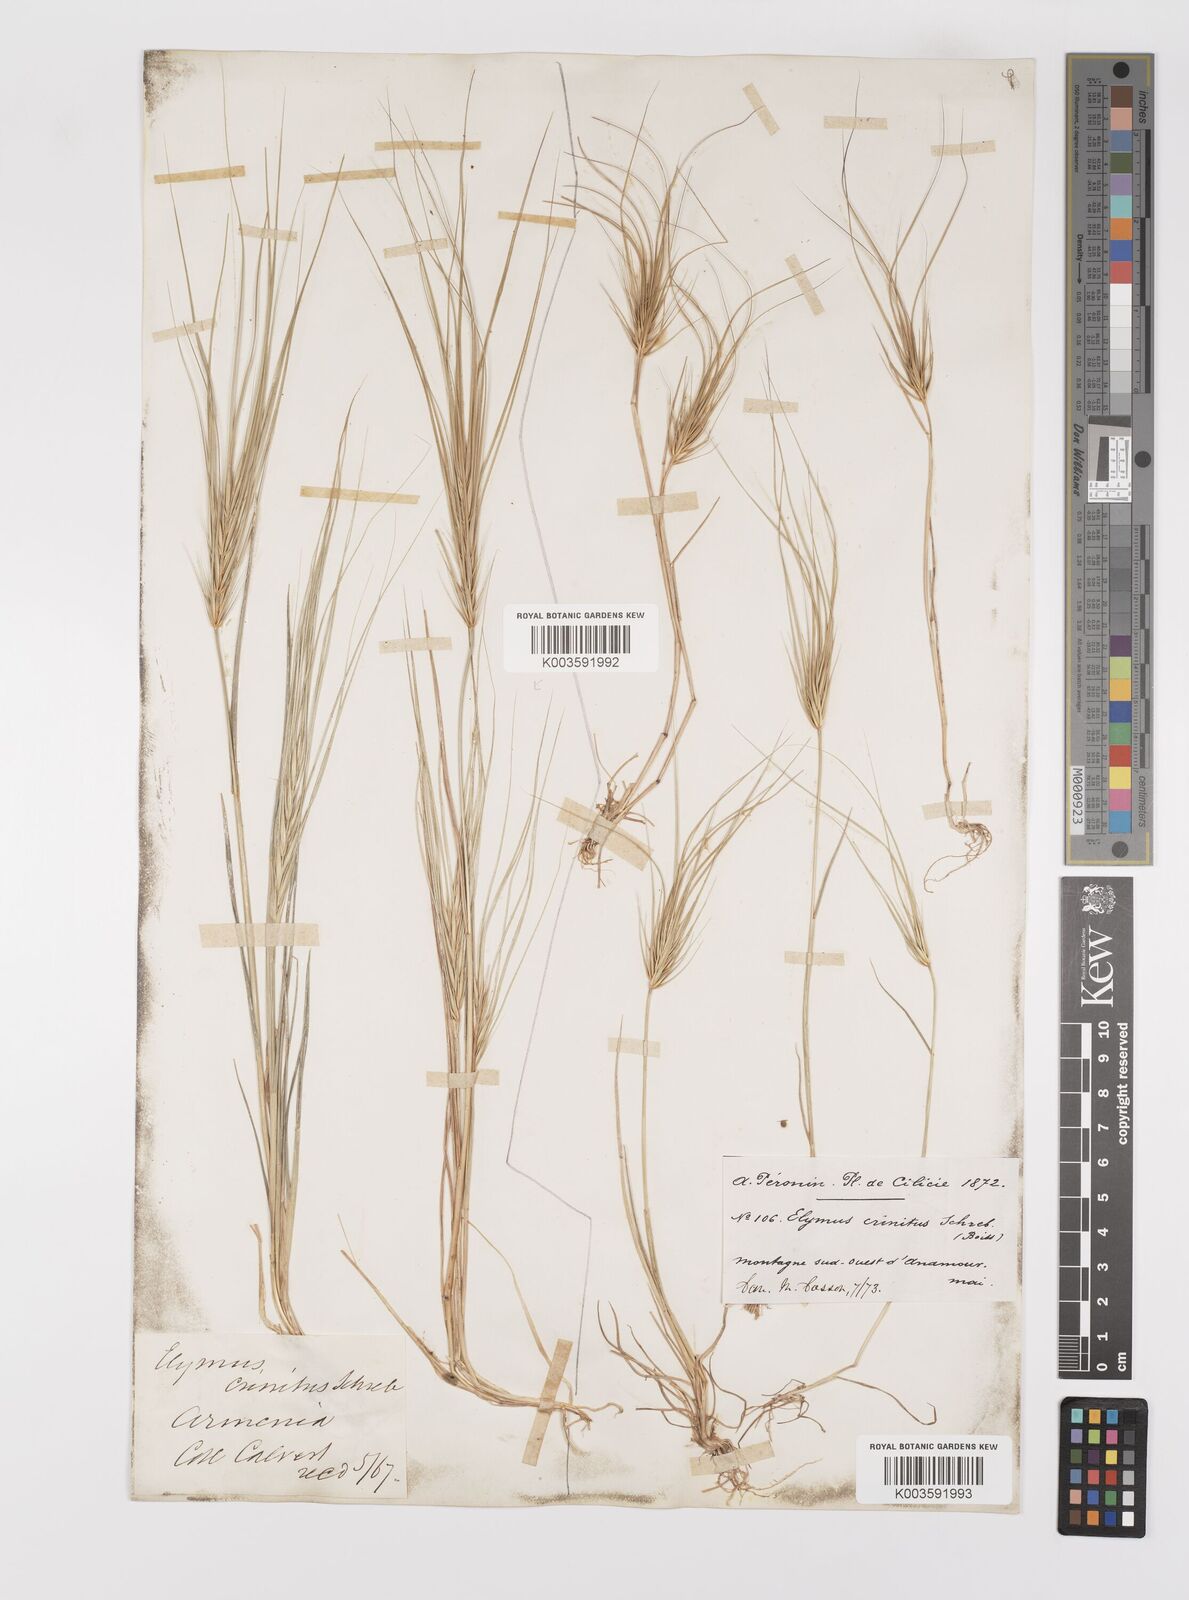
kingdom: Plantae
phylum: Tracheophyta
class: Liliopsida
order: Poales
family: Poaceae
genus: Taeniatherum
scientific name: Taeniatherum caput-medusae
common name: Medusahead
